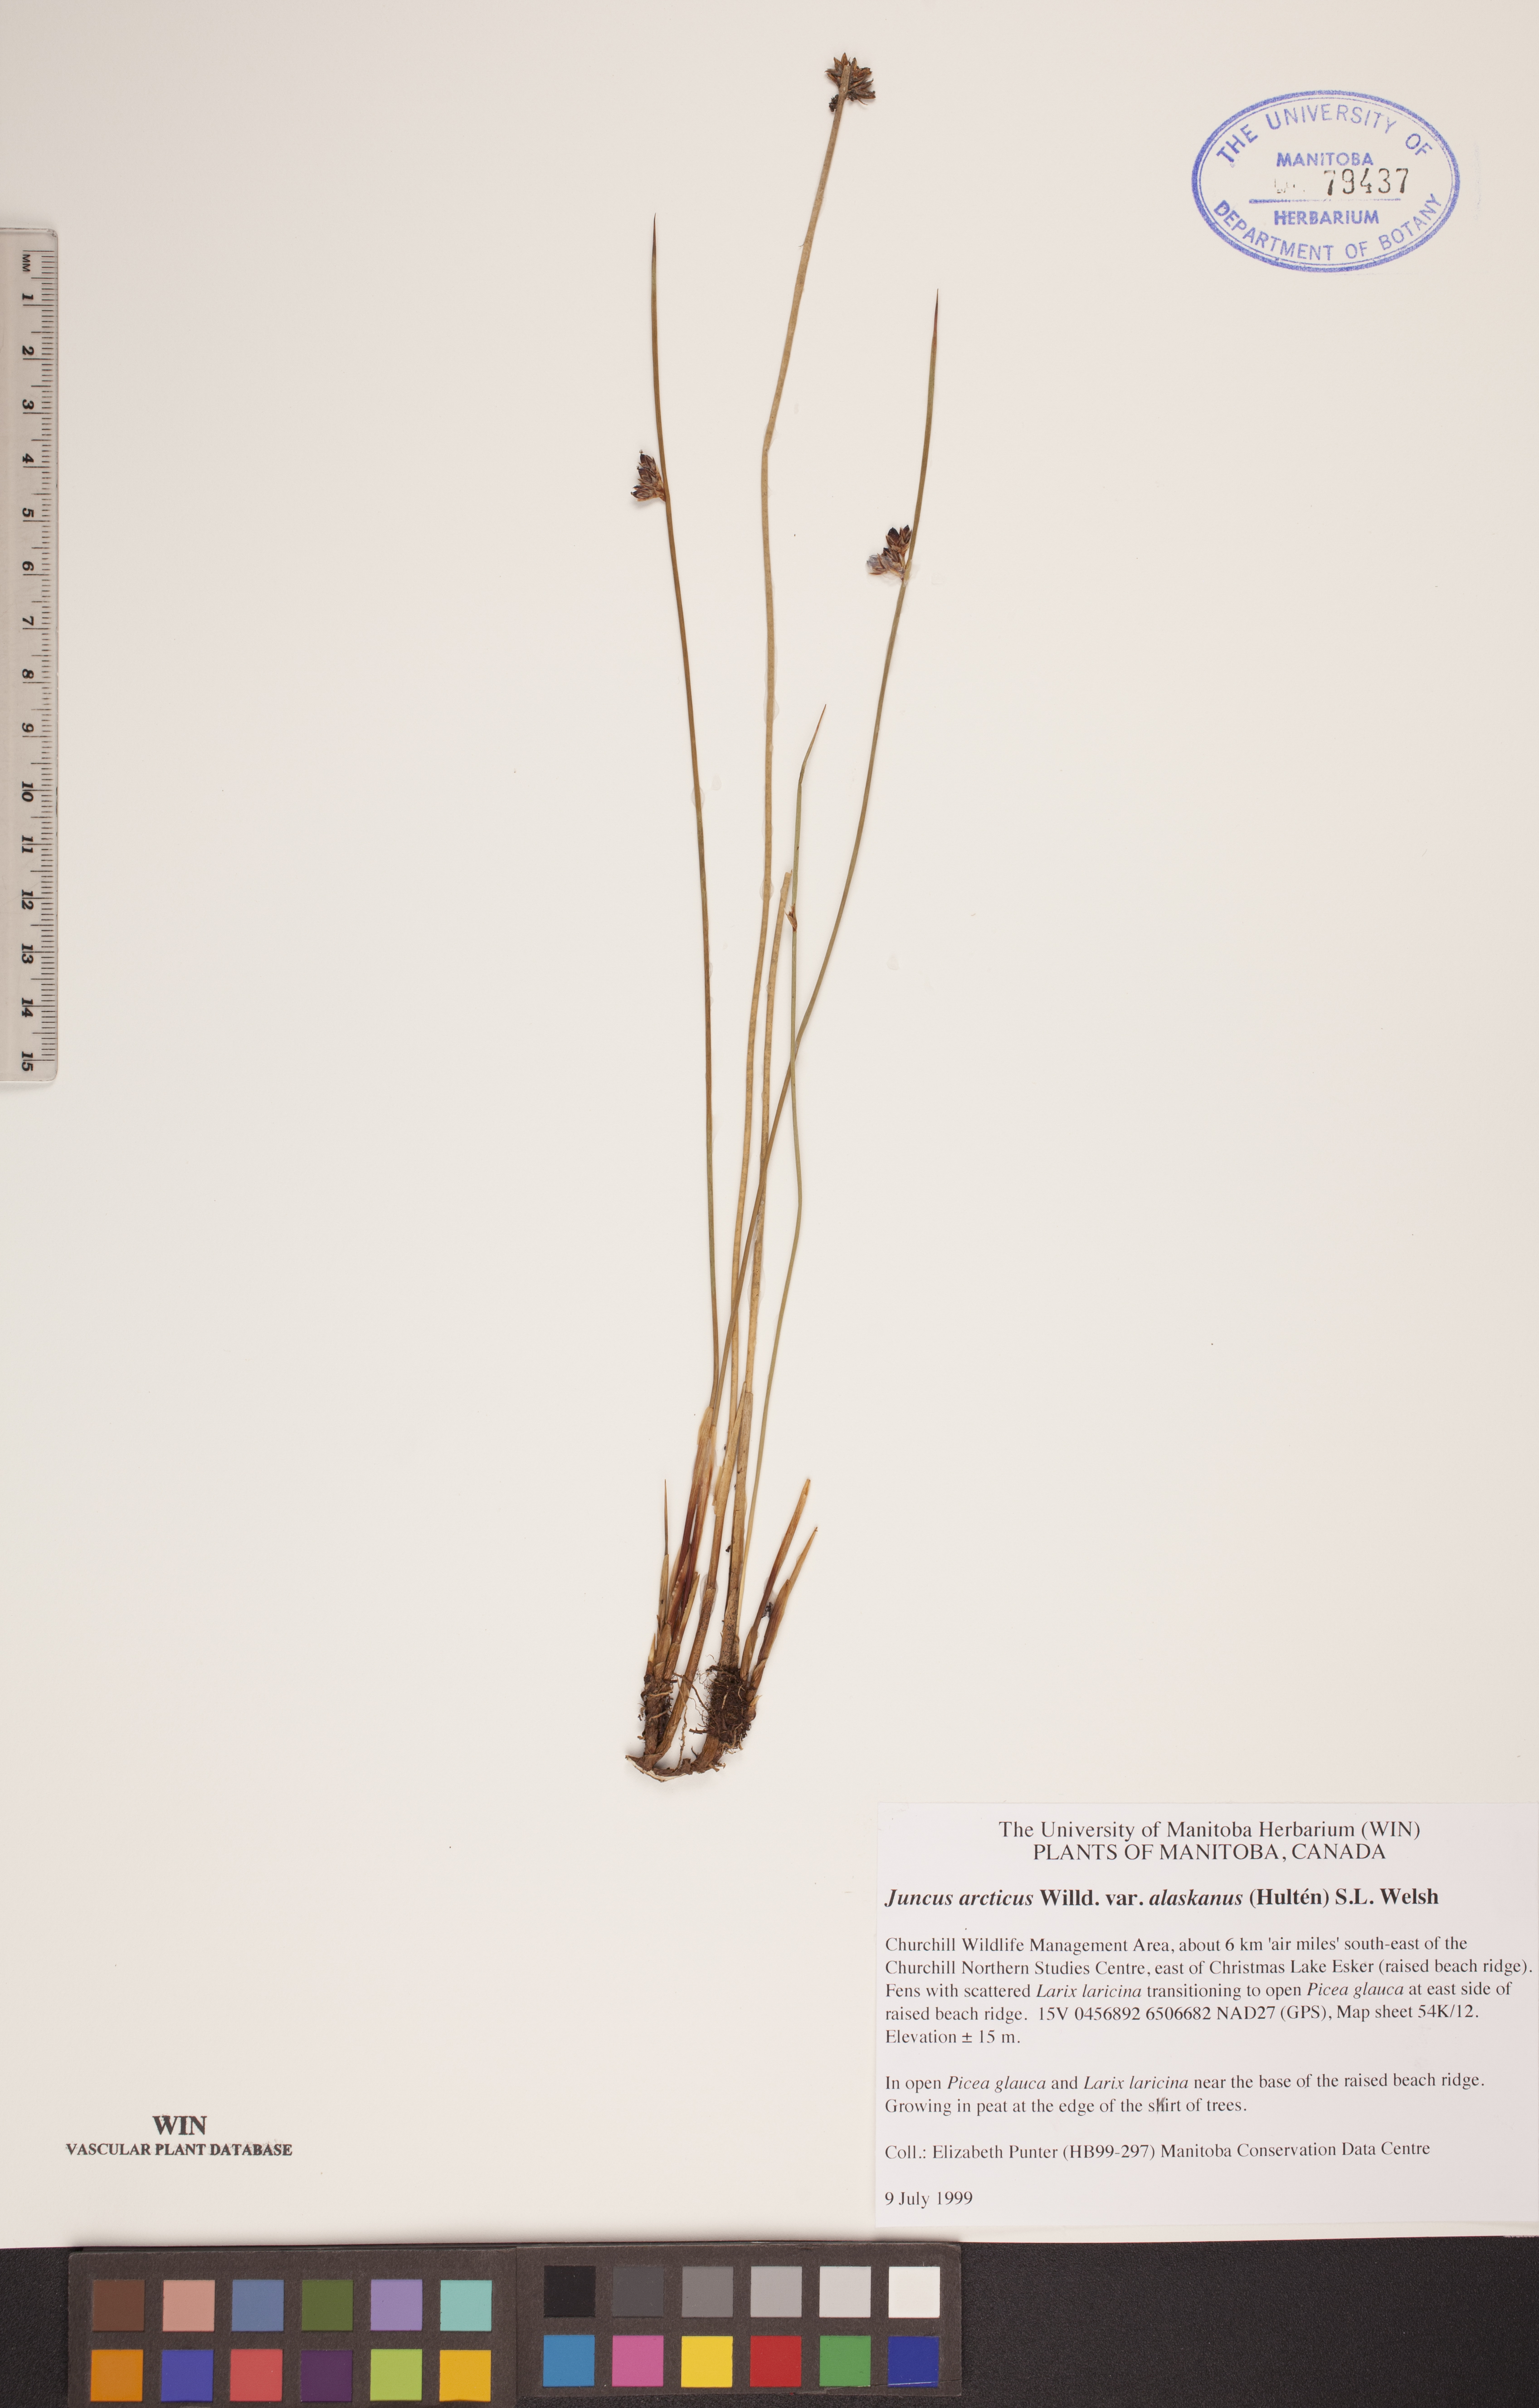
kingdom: Plantae
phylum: Tracheophyta
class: Liliopsida
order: Poales
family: Juncaceae
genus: Juncus
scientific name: Juncus arcticus
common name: Arctic rush
